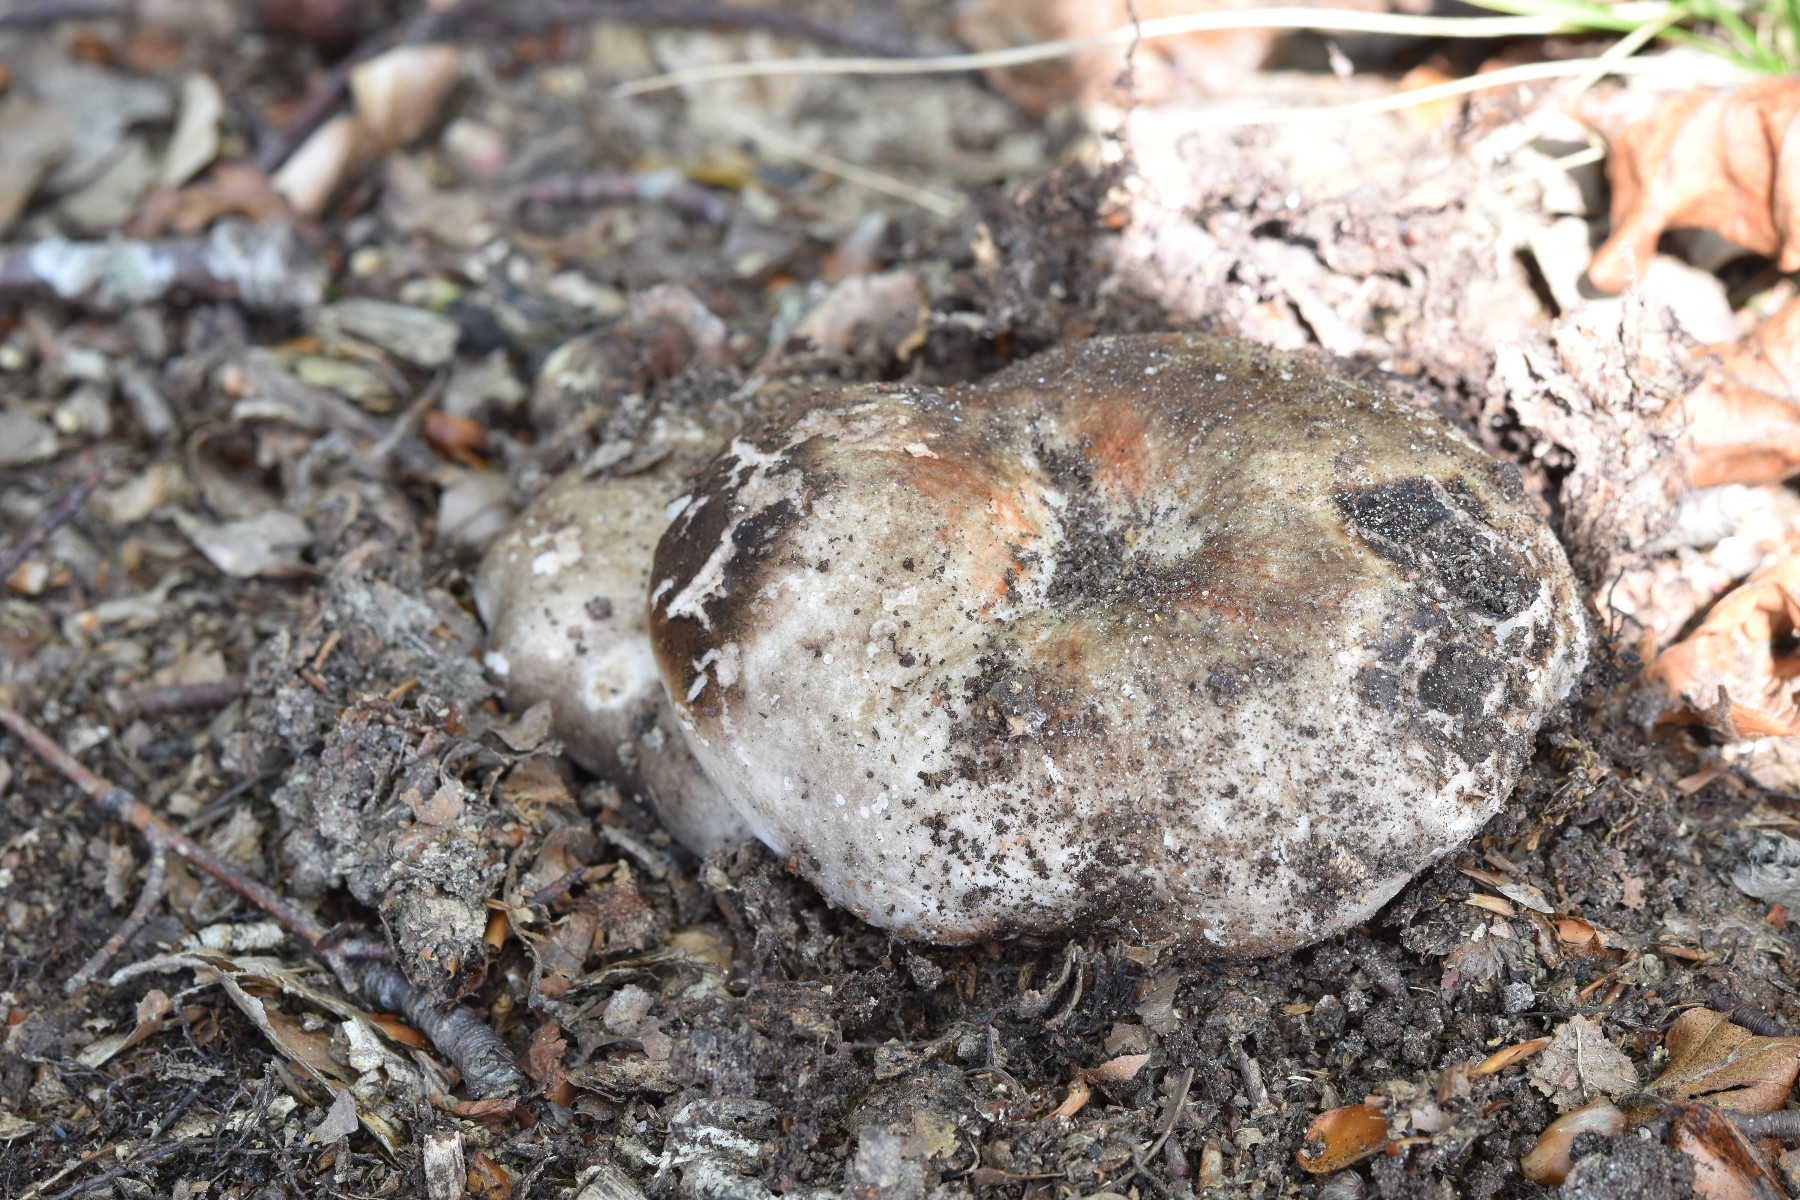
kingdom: Fungi
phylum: Basidiomycota
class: Agaricomycetes
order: Russulales
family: Russulaceae
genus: Russula
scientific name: Russula adusta
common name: sværtende skørhat
